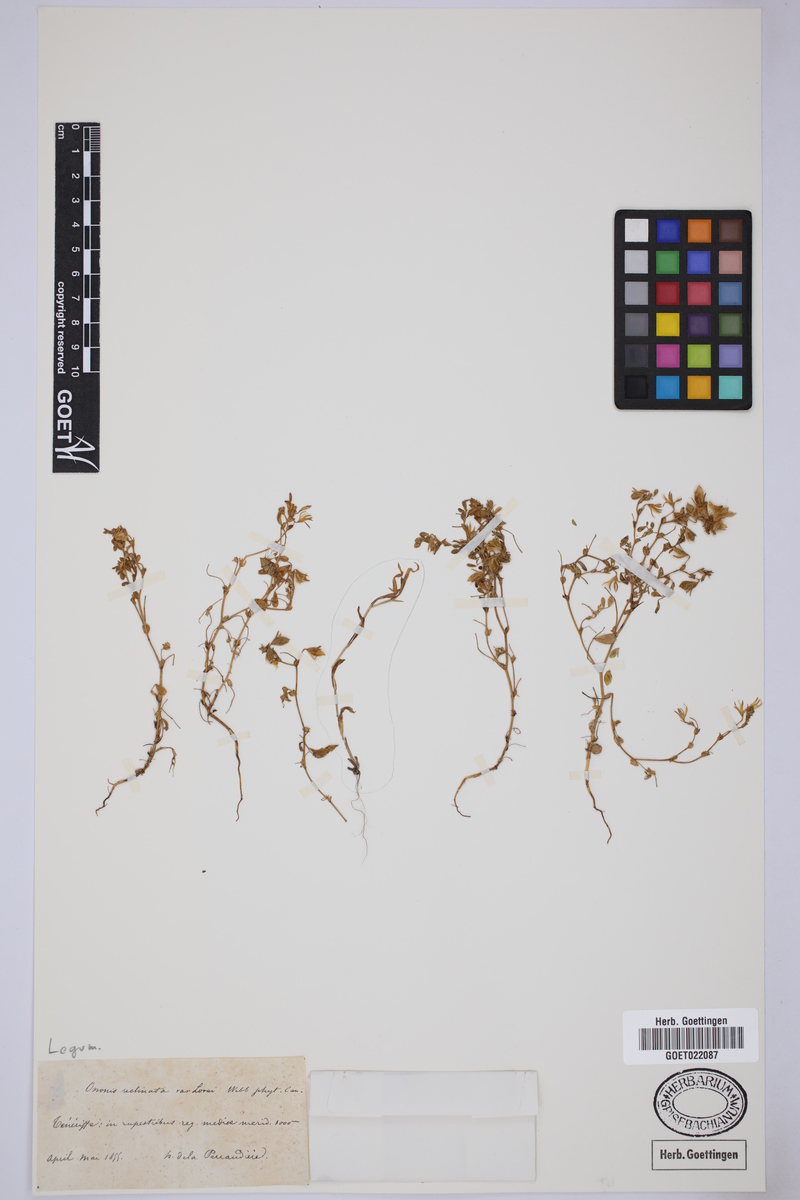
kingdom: Plantae
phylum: Tracheophyta
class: Magnoliopsida
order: Fabales
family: Fabaceae
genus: Ononis
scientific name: Ononis reclinata
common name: Small restharrow
